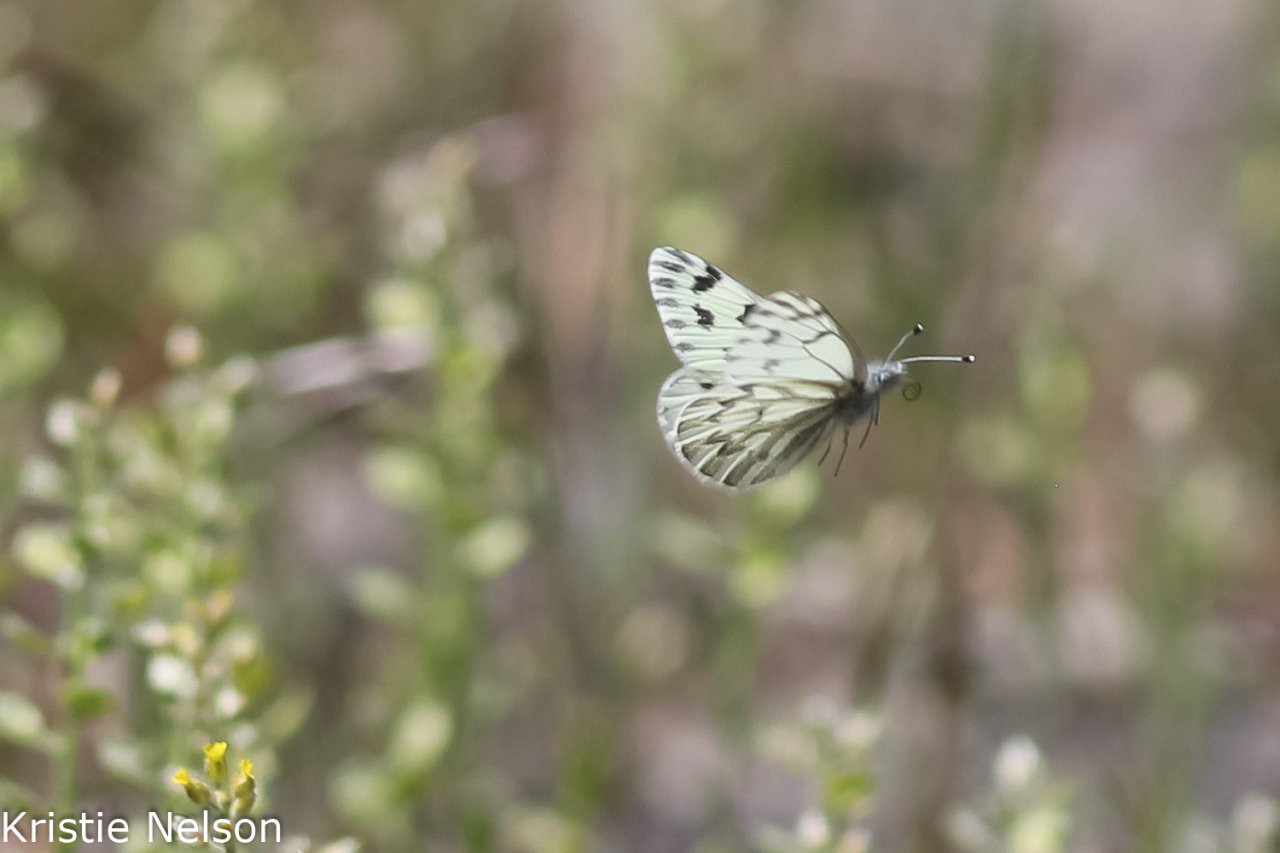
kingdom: Animalia
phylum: Arthropoda
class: Insecta
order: Lepidoptera
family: Pieridae
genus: Pontia
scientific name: Pontia sisymbrii
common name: Spring White
